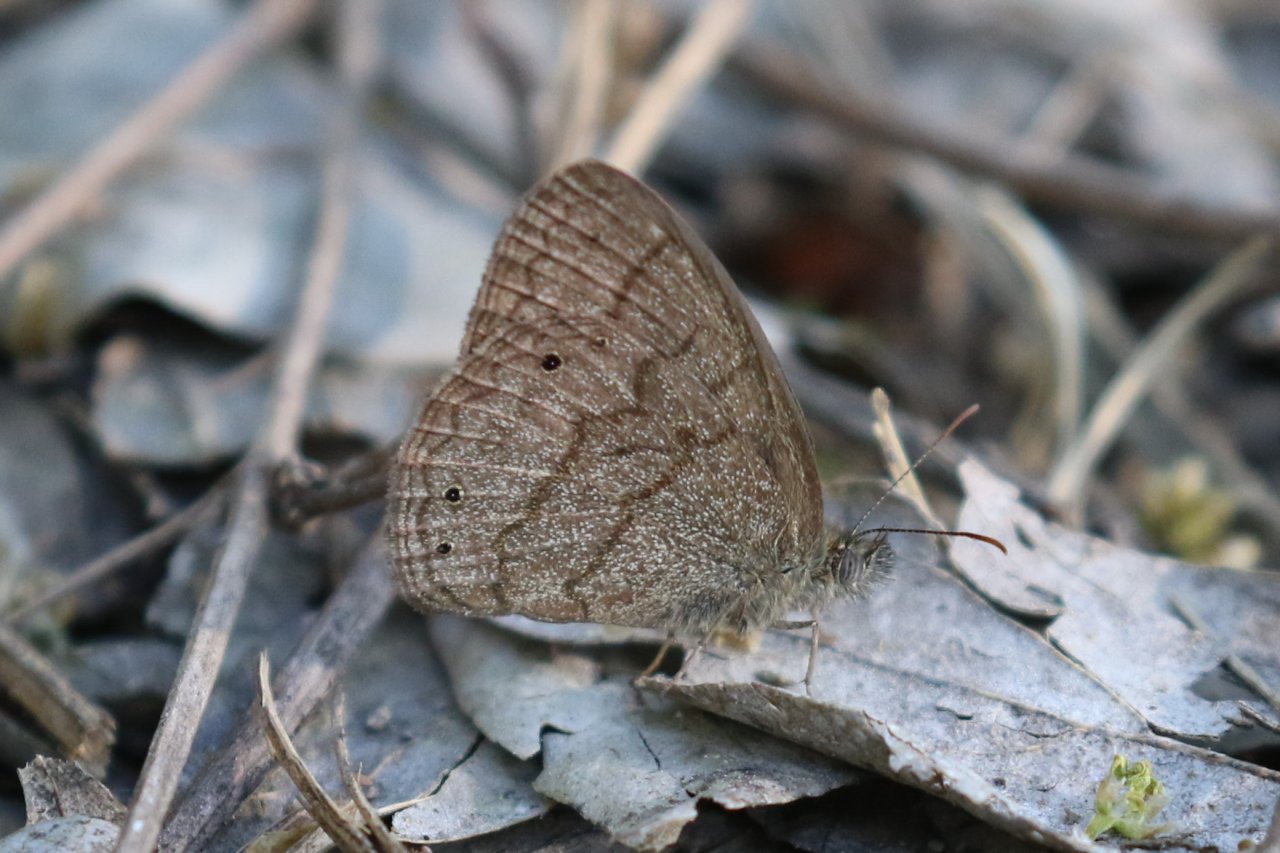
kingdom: Animalia
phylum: Arthropoda
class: Insecta
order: Lepidoptera
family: Nymphalidae
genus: Hermeuptychia
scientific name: Hermeuptychia hermybius
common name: South Texas Satyr
